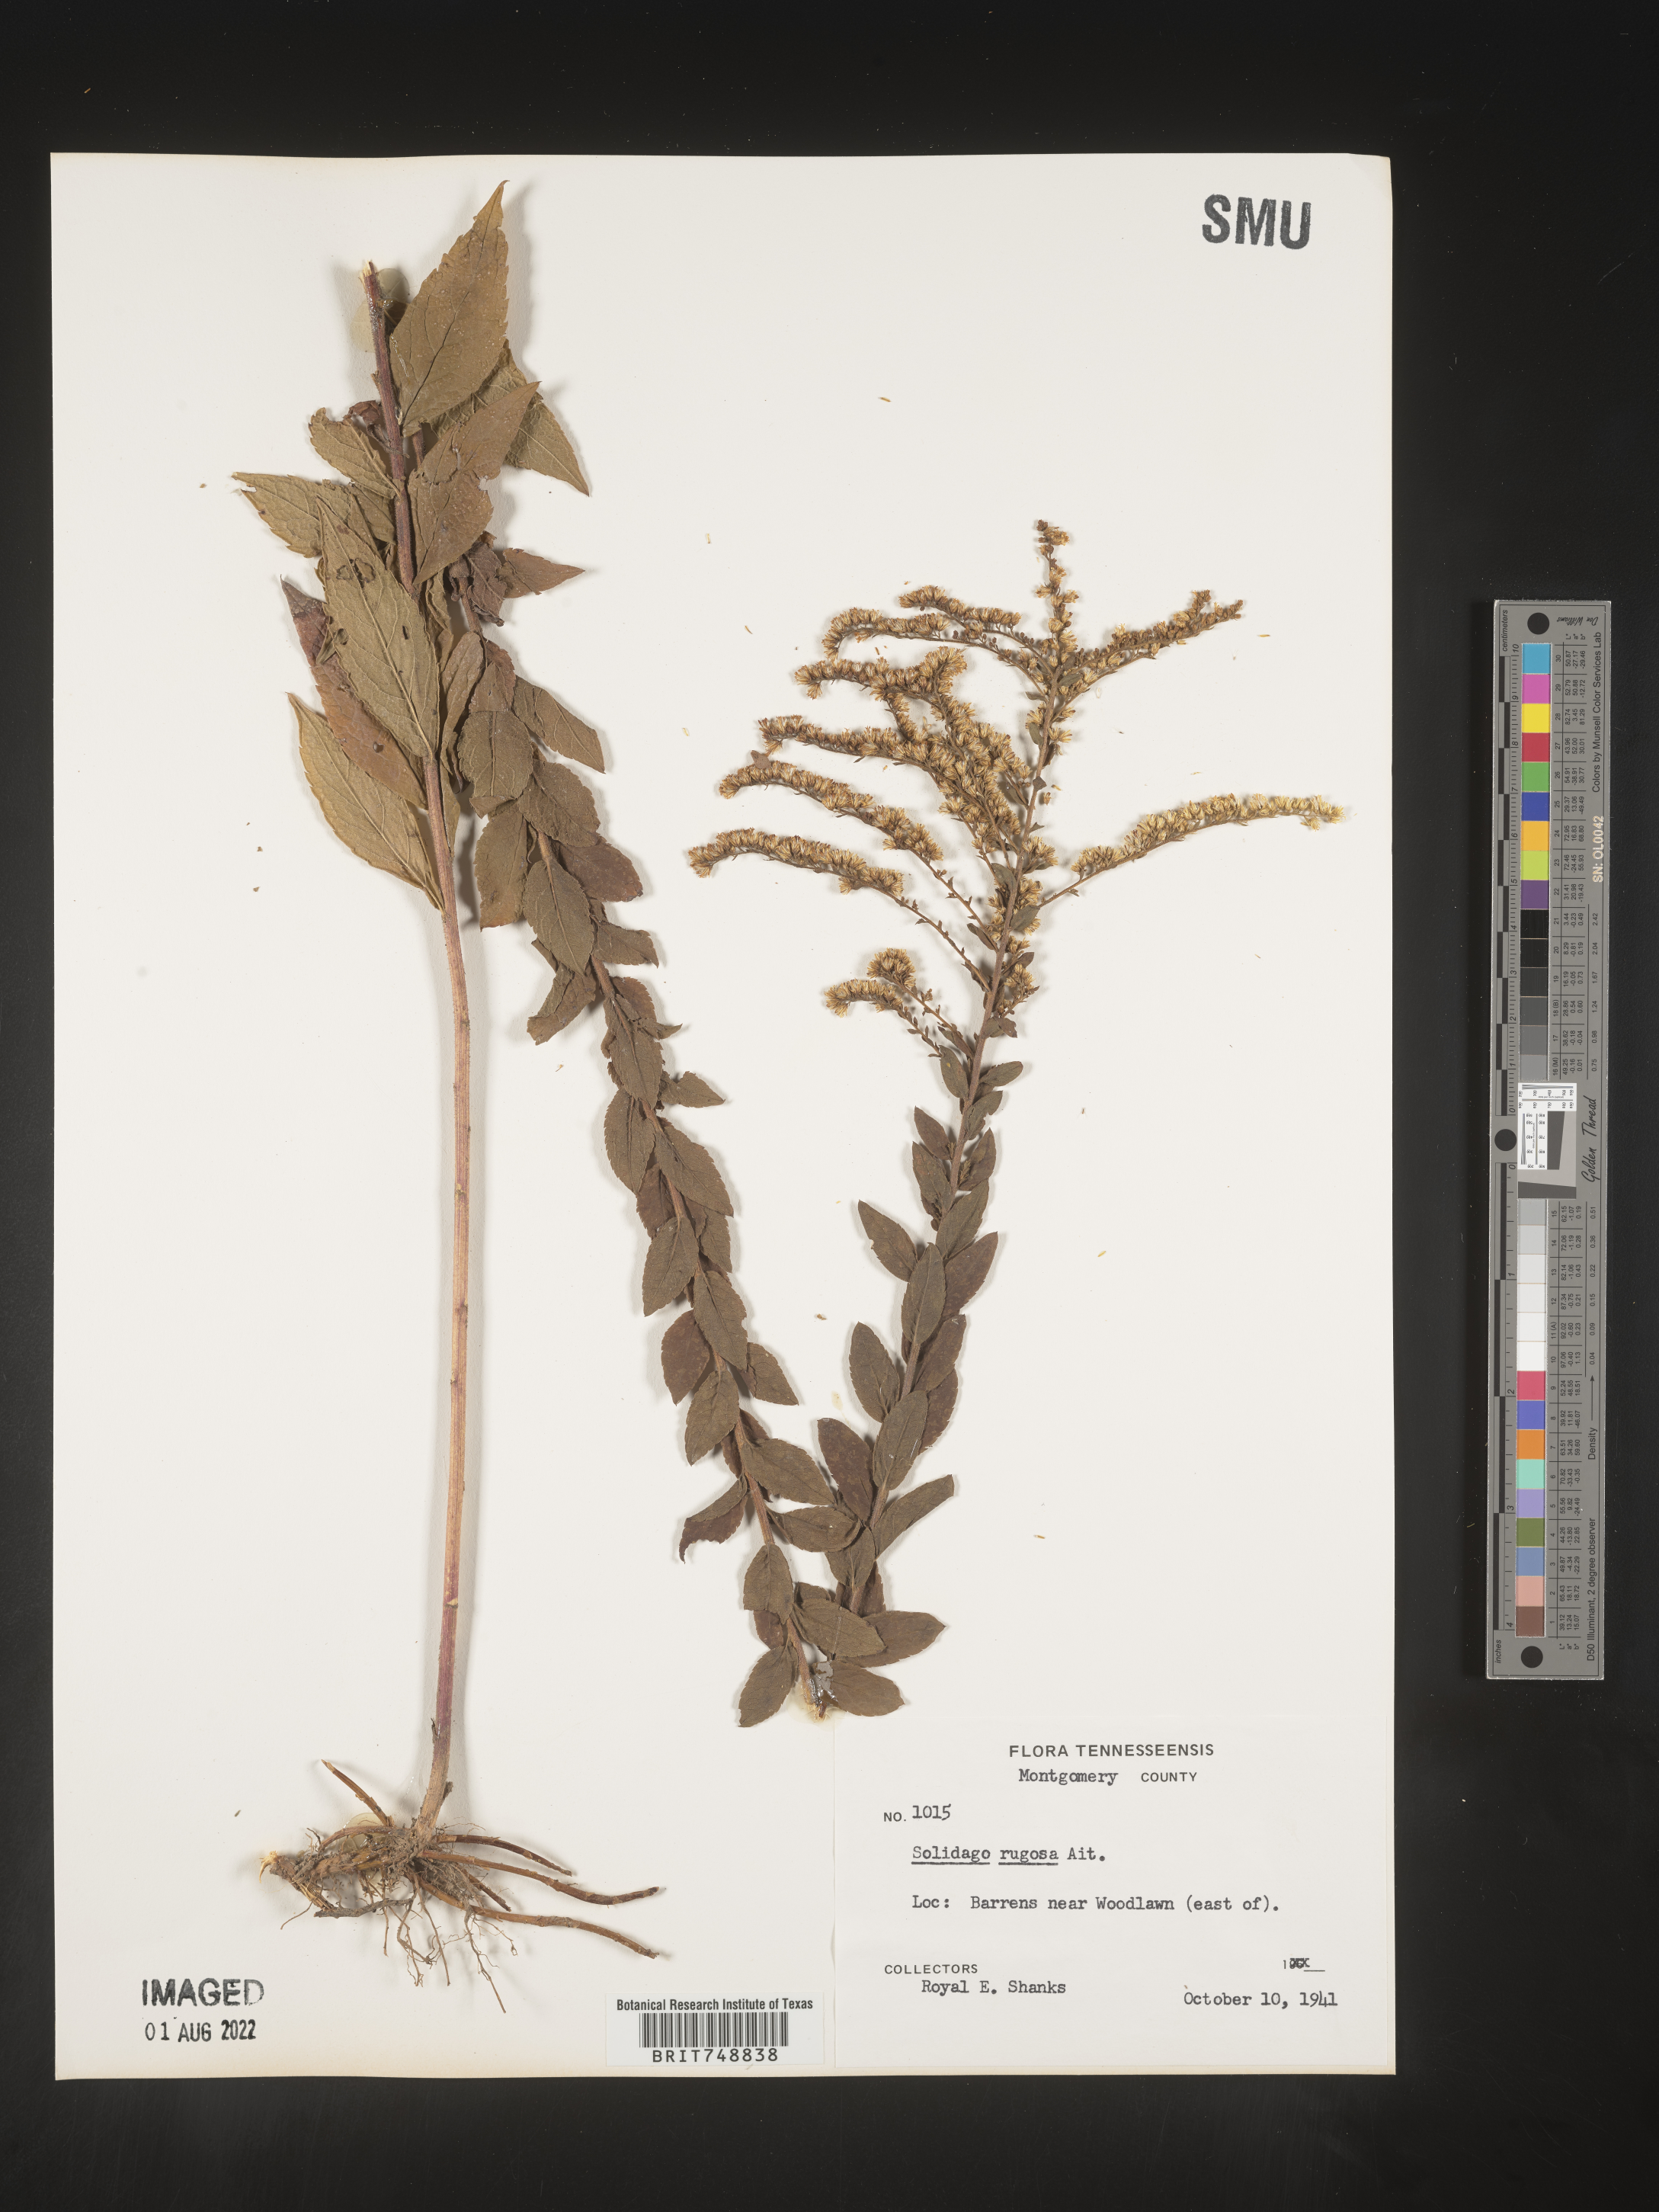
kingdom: Plantae
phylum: Tracheophyta
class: Magnoliopsida
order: Asterales
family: Asteraceae
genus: Solidago
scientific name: Solidago rugosa
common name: Rough-stemmed goldenrod
